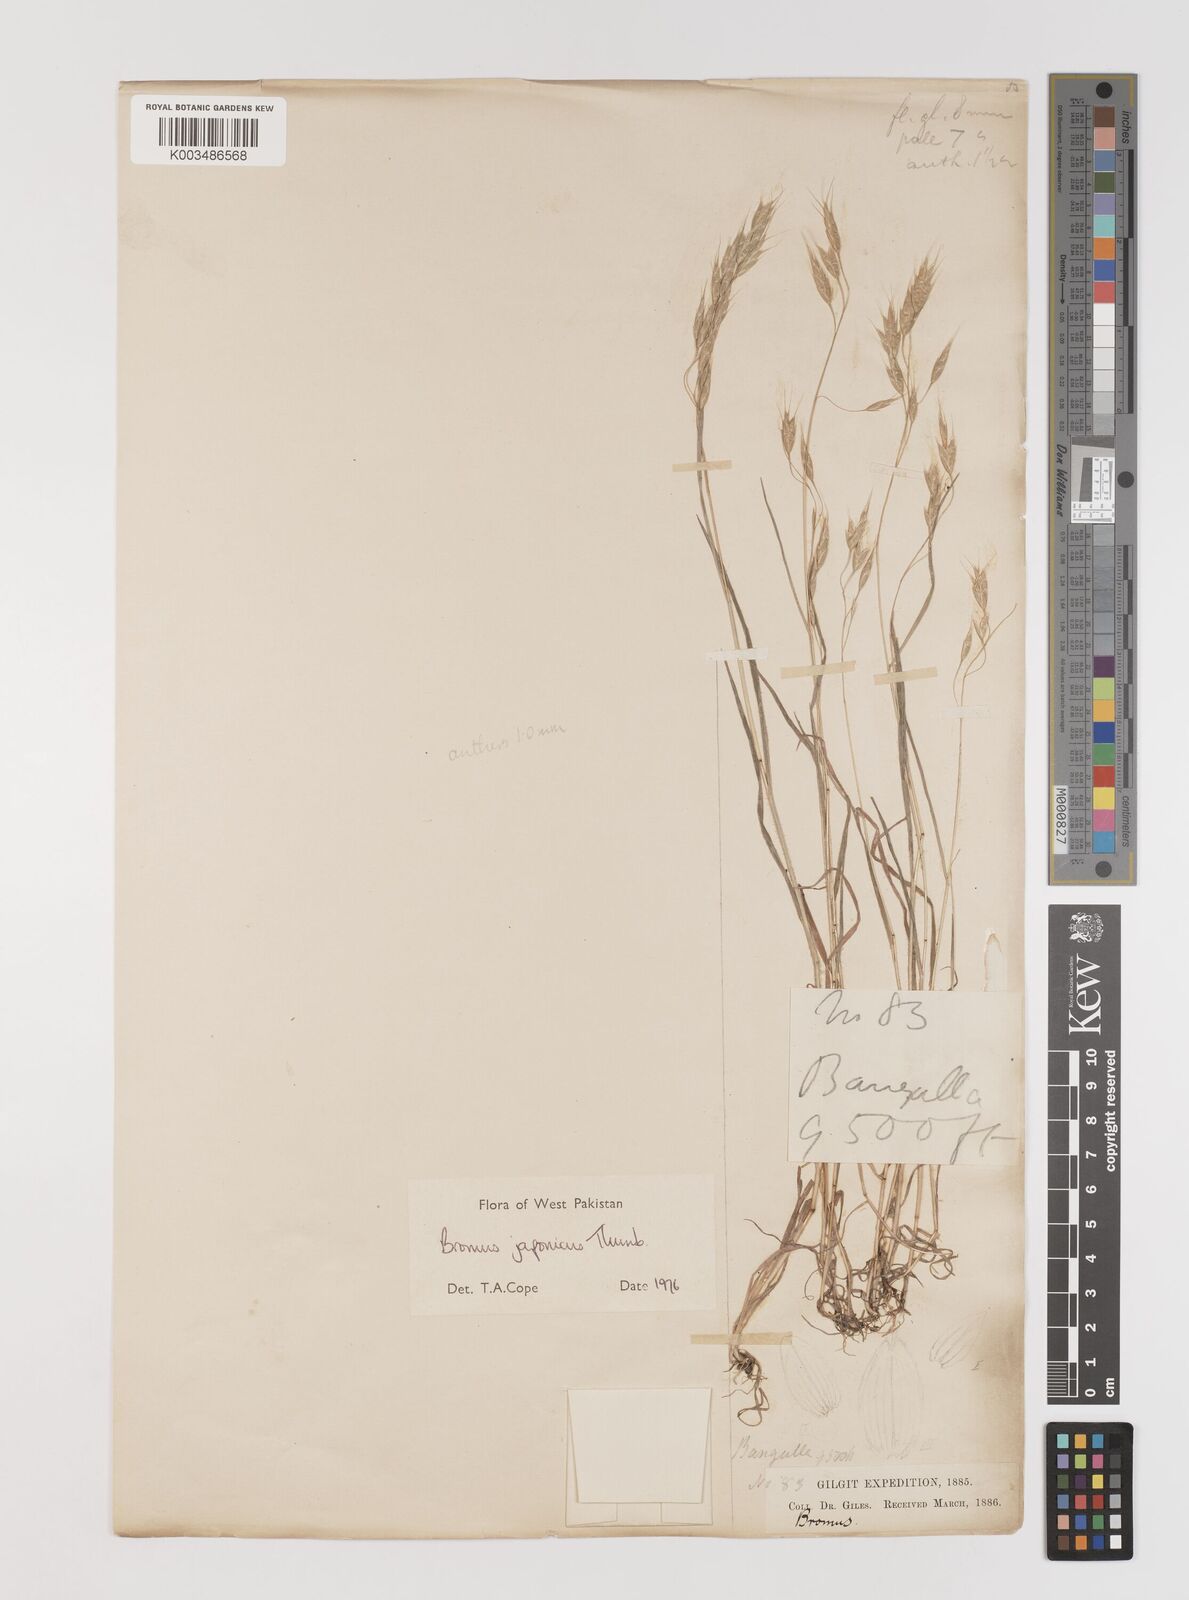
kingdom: Plantae
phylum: Tracheophyta
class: Liliopsida
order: Poales
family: Poaceae
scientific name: Poaceae
